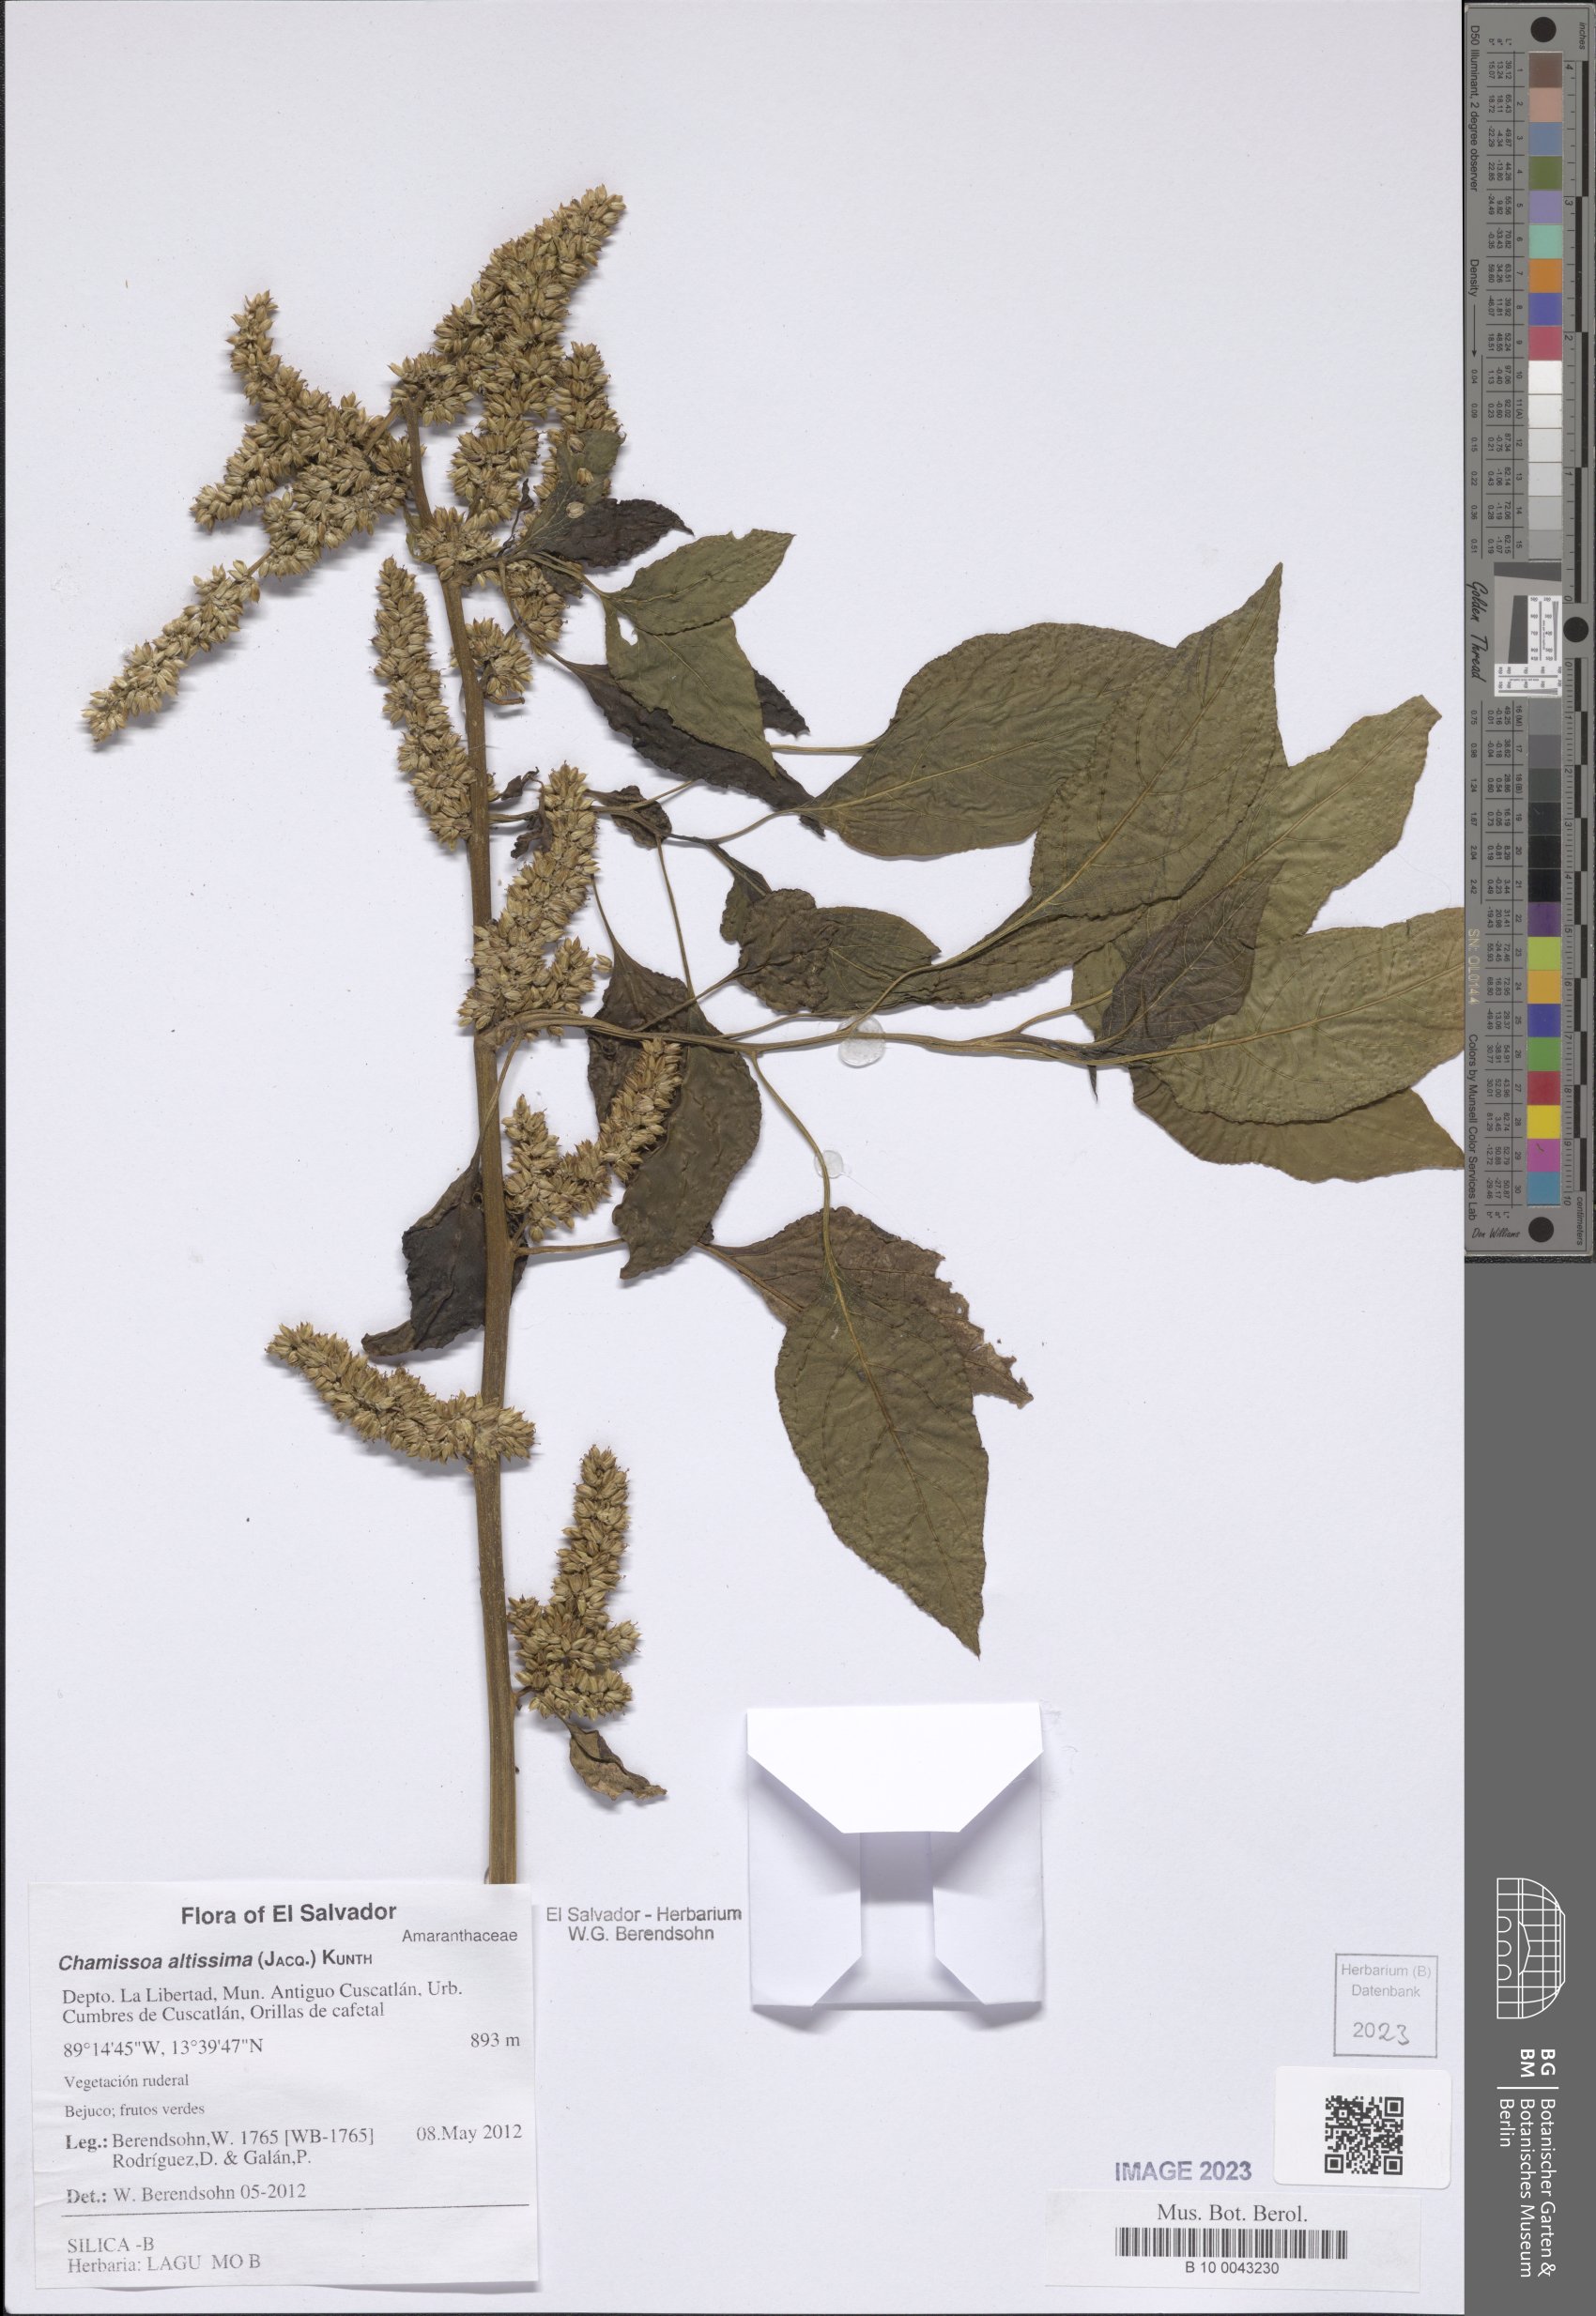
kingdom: Plantae
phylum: Tracheophyta
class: Magnoliopsida
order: Caryophyllales
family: Amaranthaceae
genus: Chamissoa
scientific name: Chamissoa altissima
